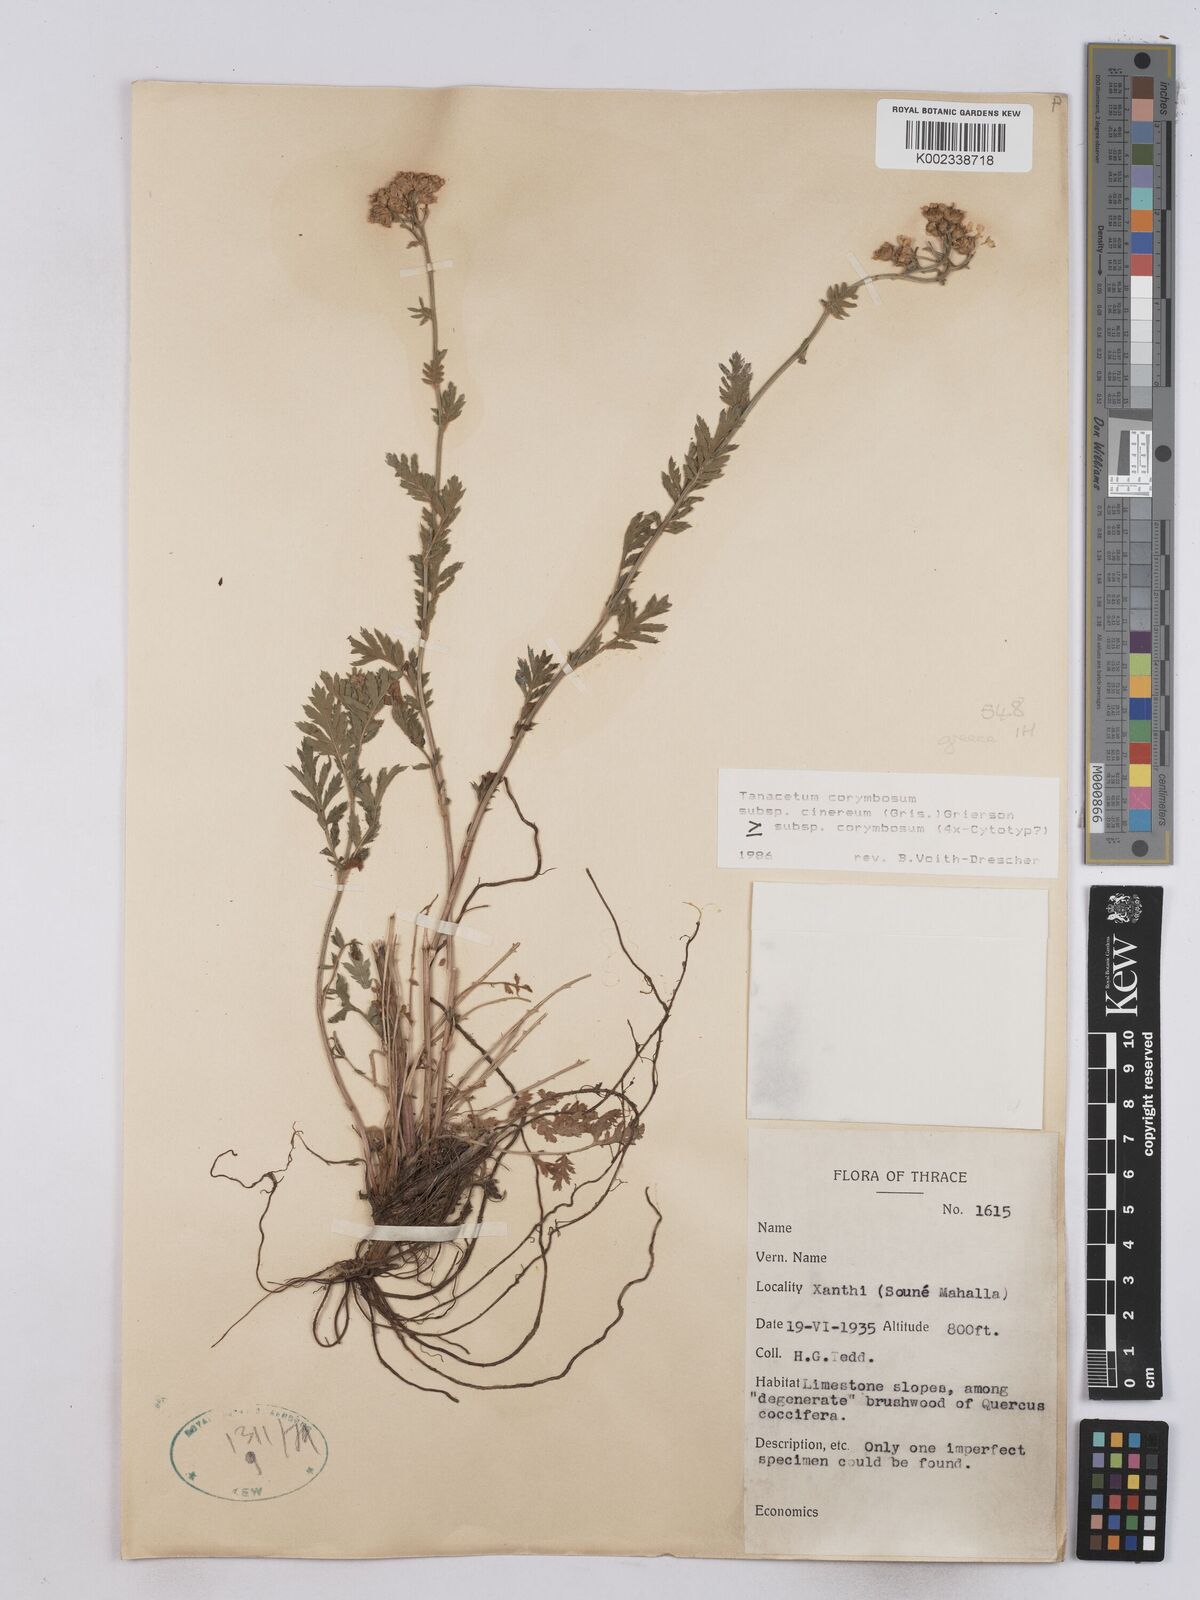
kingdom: Plantae
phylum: Tracheophyta
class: Magnoliopsida
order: Asterales
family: Asteraceae
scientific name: Asteraceae
